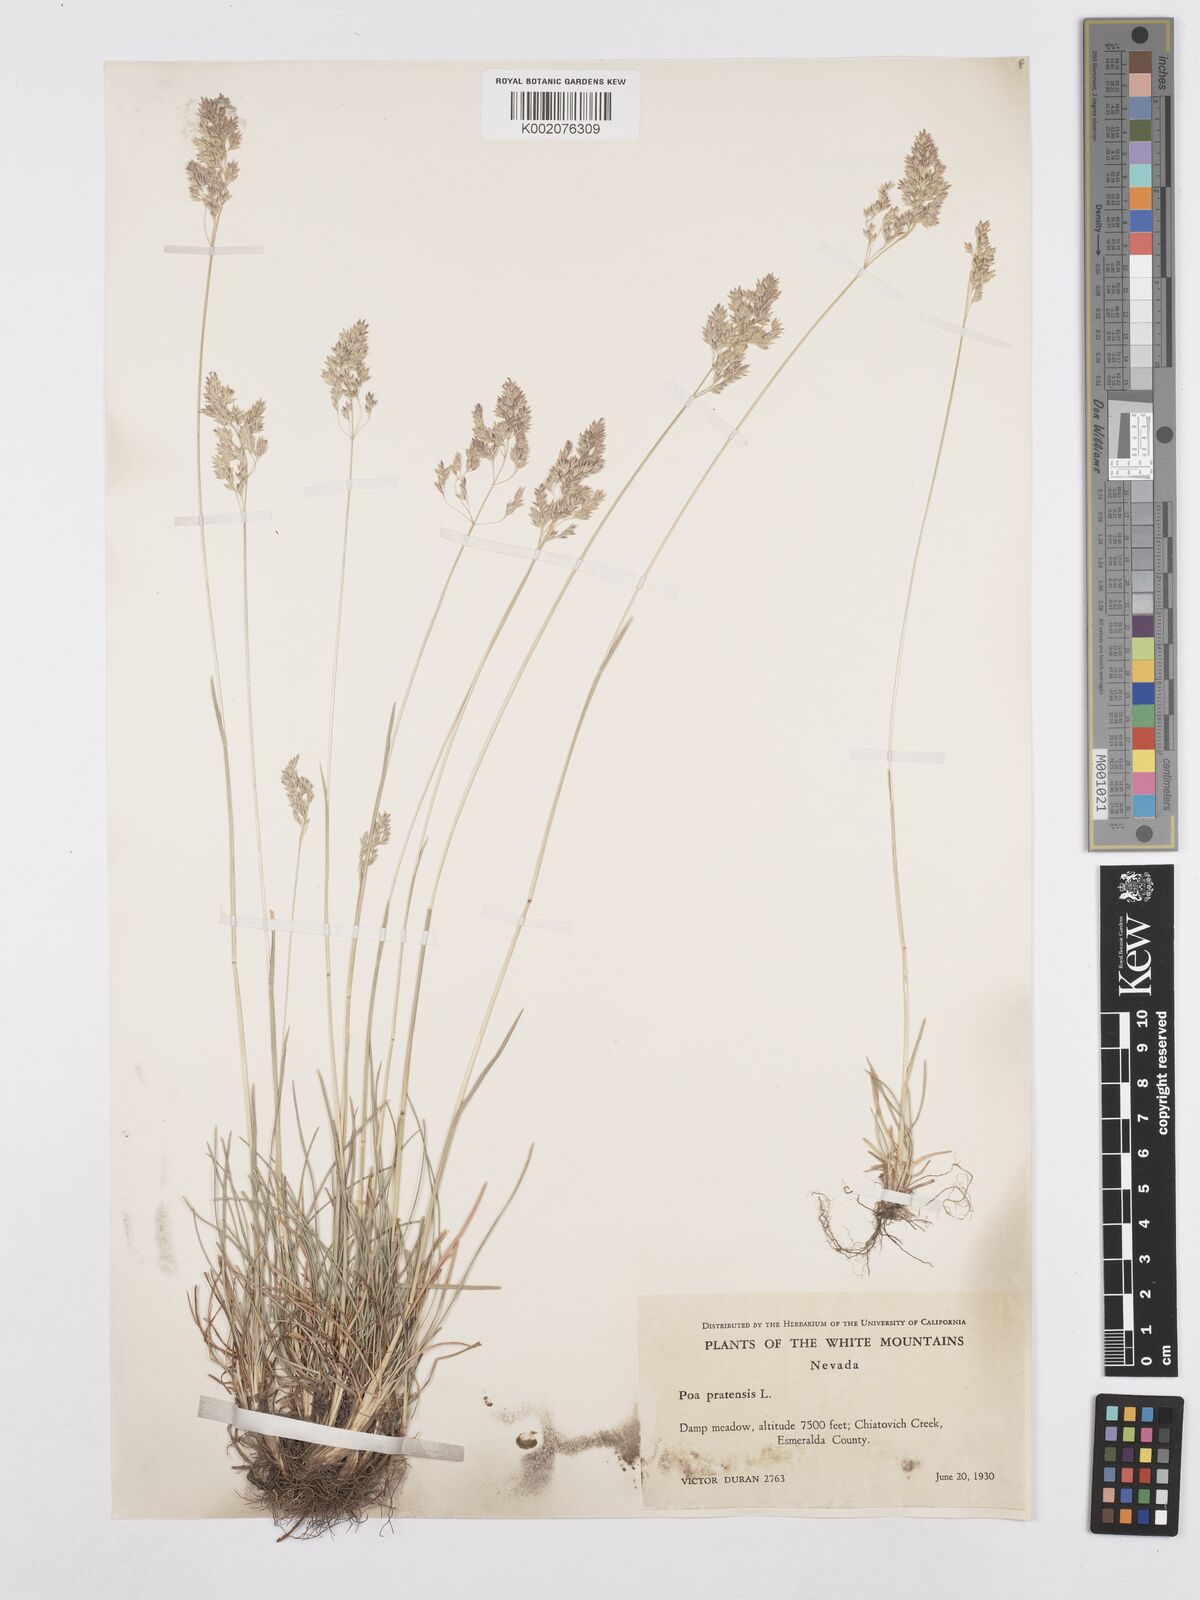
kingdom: Plantae
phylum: Tracheophyta
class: Liliopsida
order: Poales
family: Poaceae
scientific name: Poaceae
